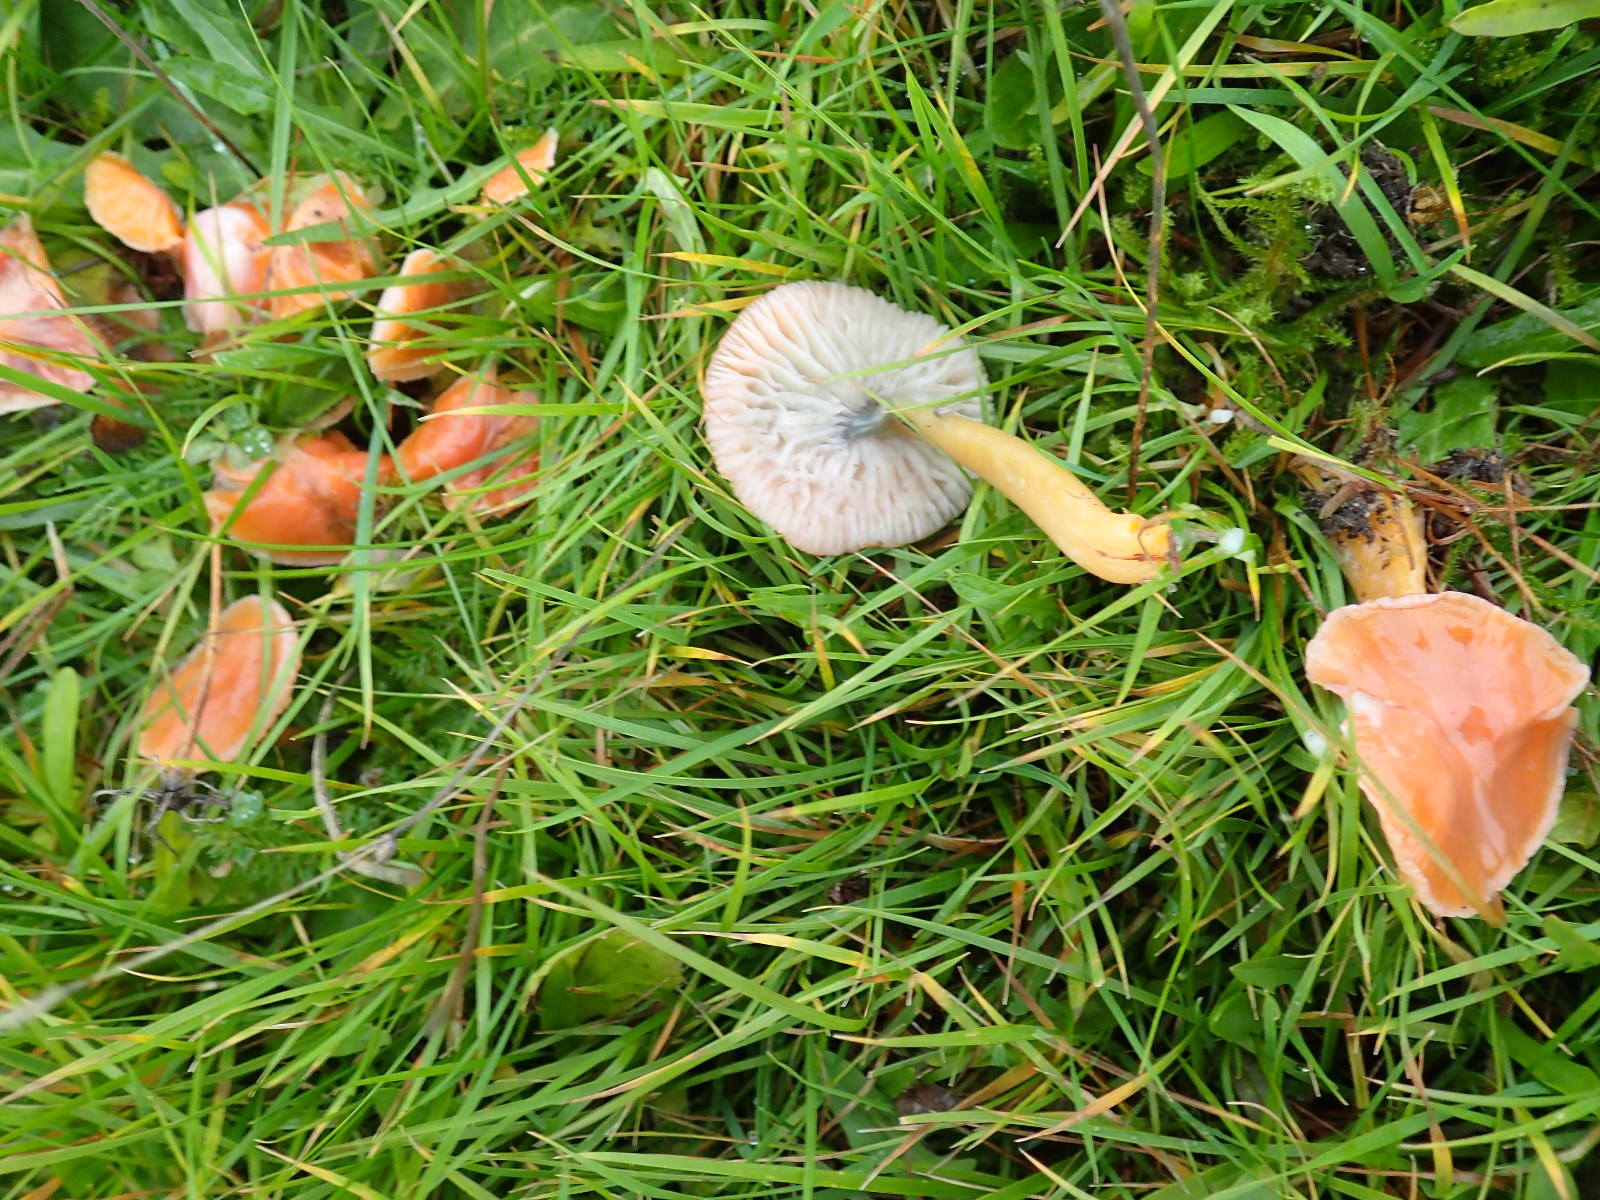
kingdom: Fungi
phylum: Basidiomycota
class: Agaricomycetes
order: Agaricales
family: Hygrophoraceae
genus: Gliophorus
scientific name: Gliophorus laetus
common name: brusk-vokshat
